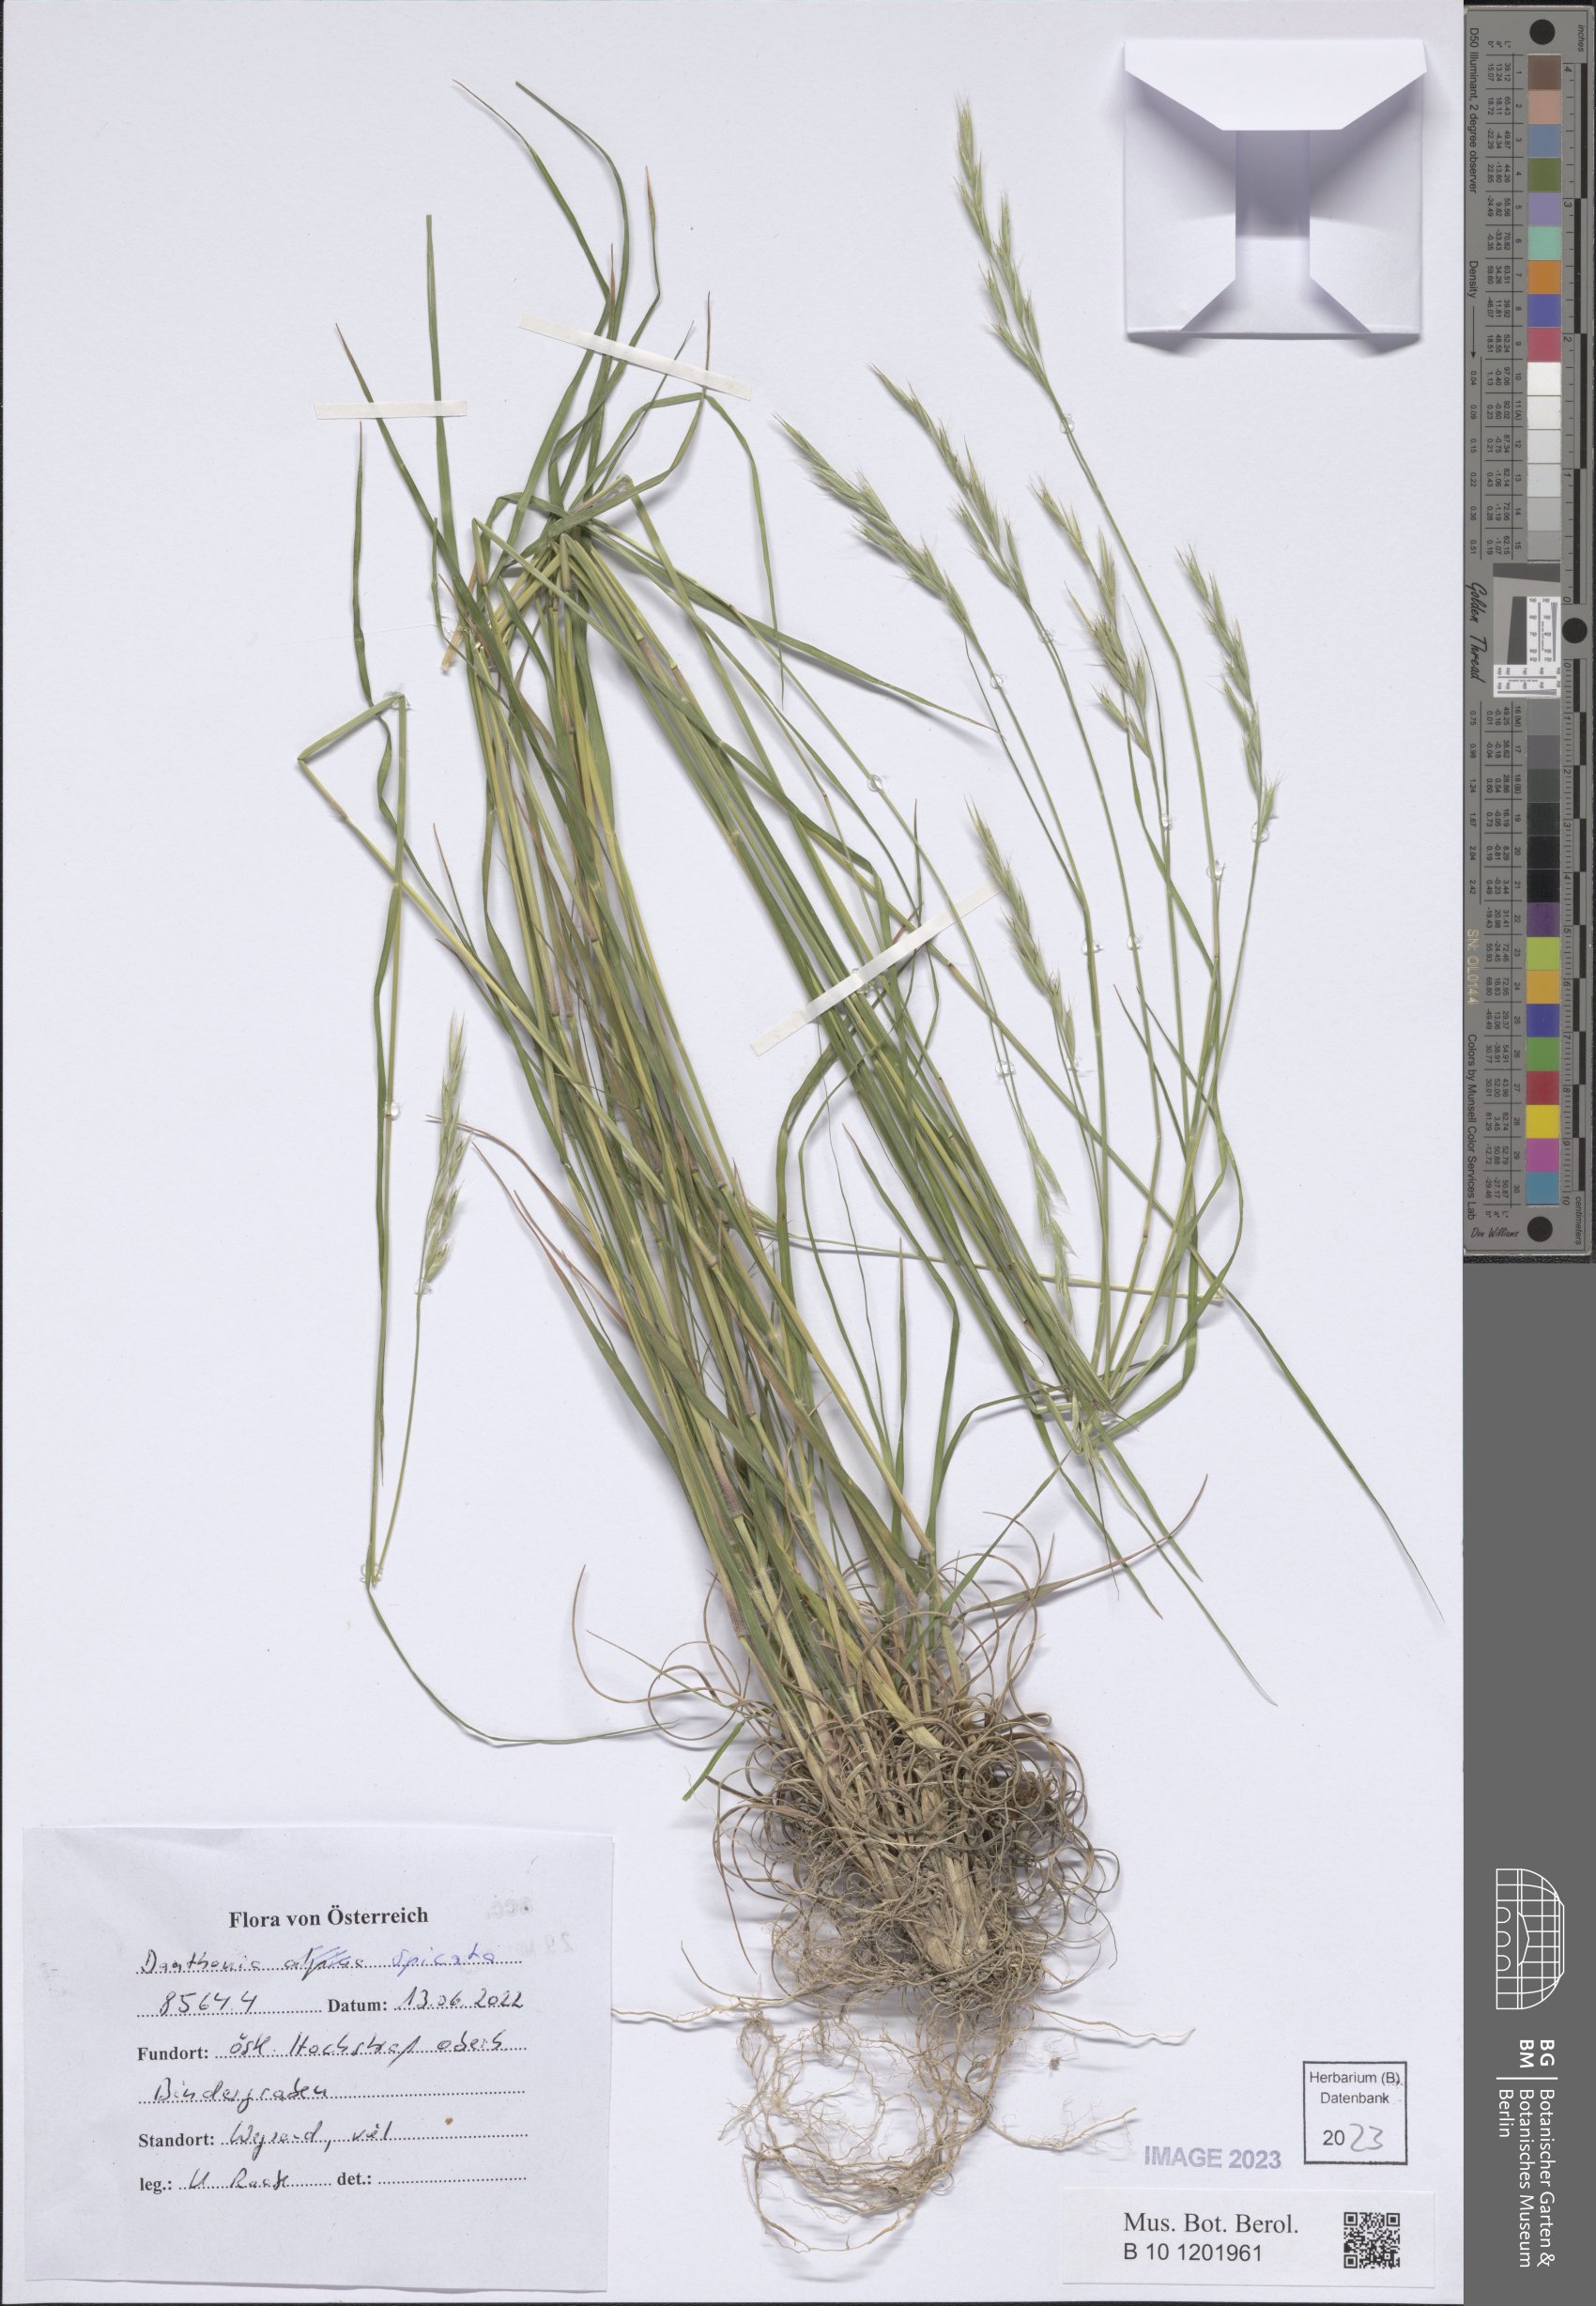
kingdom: Plantae
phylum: Tracheophyta
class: Liliopsida
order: Poales
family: Poaceae
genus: Danthonia
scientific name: Danthonia spicata
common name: Common wild oatgrass
